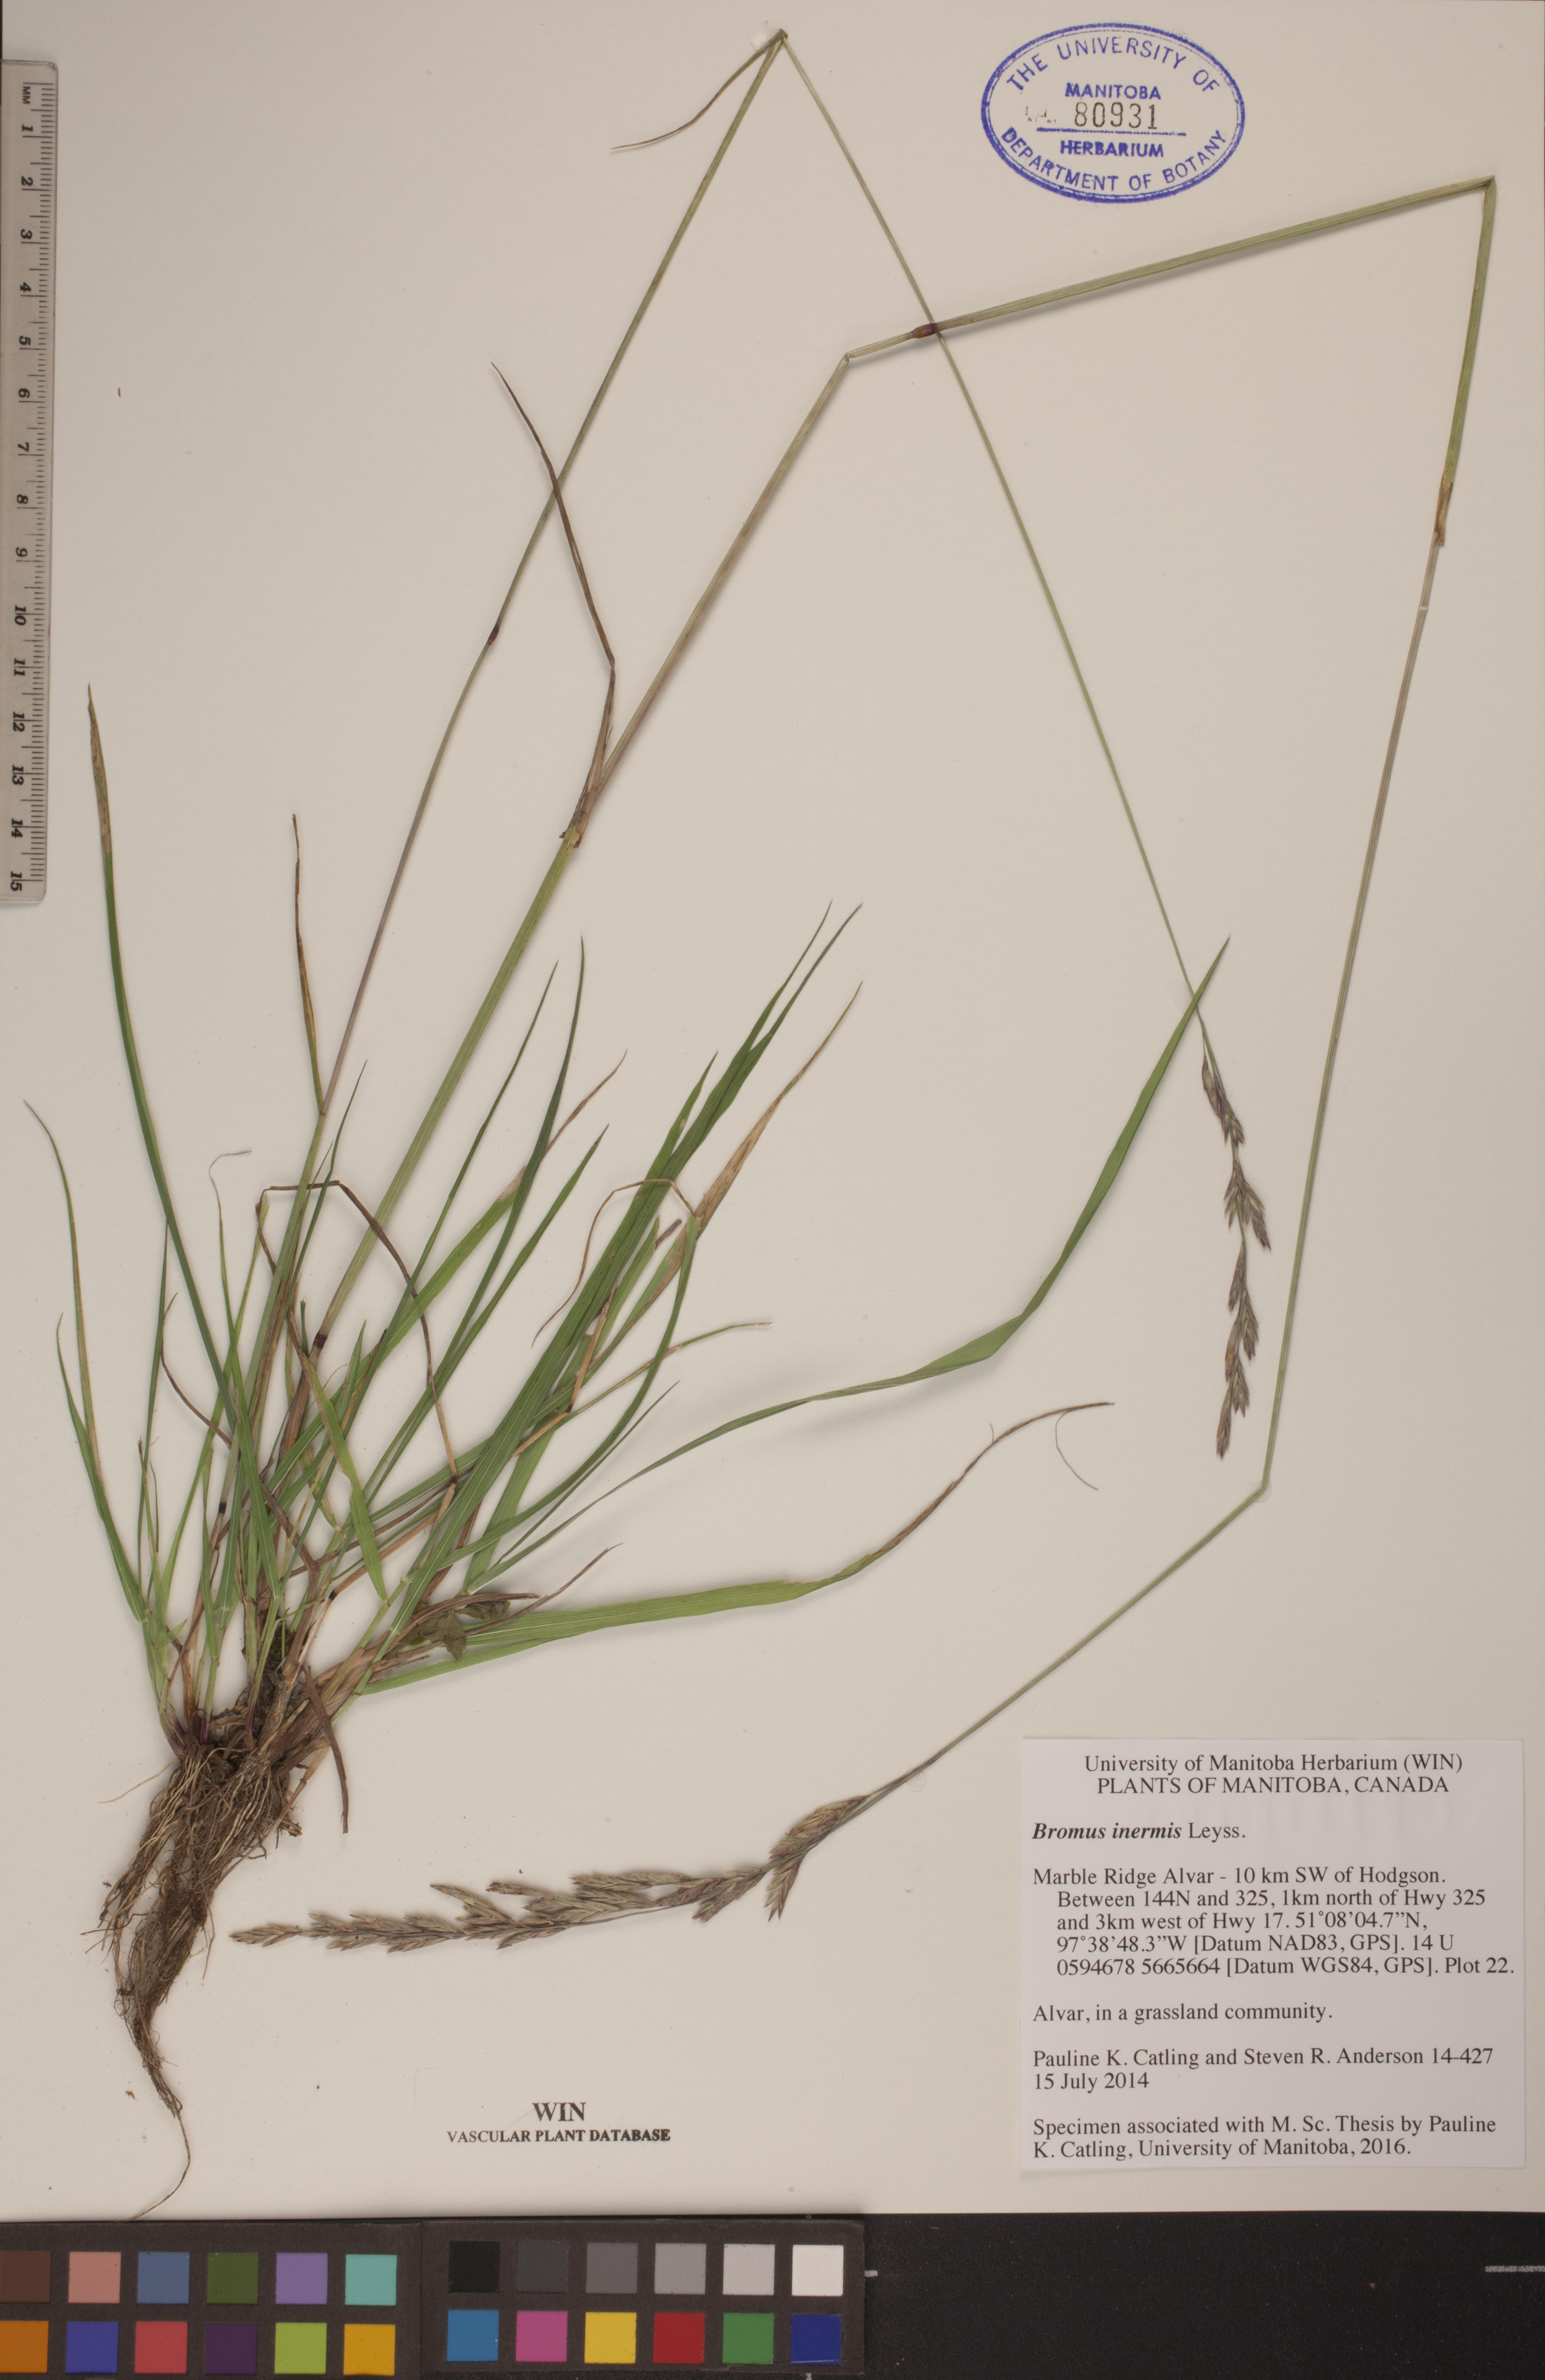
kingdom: Plantae
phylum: Tracheophyta
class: Liliopsida
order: Poales
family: Poaceae
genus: Bromus
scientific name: Bromus inermis
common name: Smooth brome
